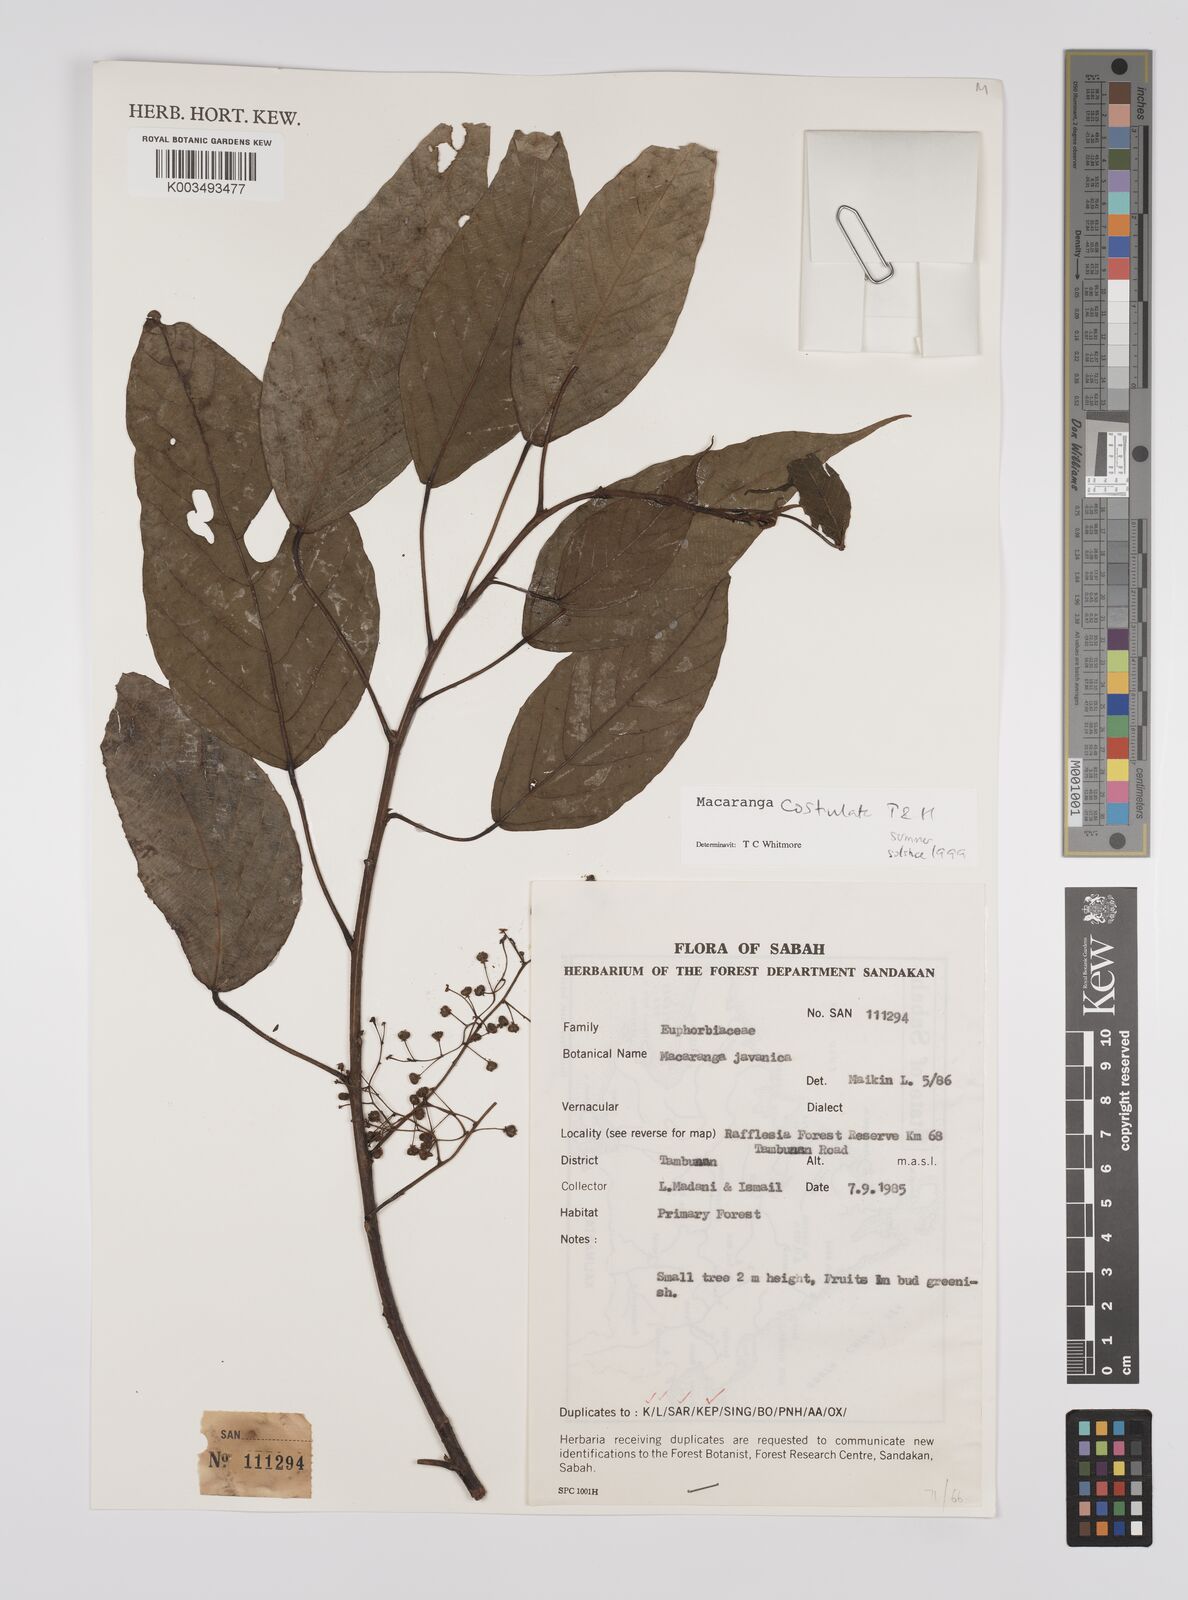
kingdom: Plantae
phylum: Tracheophyta
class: Magnoliopsida
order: Malpighiales
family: Euphorbiaceae
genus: Macaranga
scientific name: Macaranga costulata
